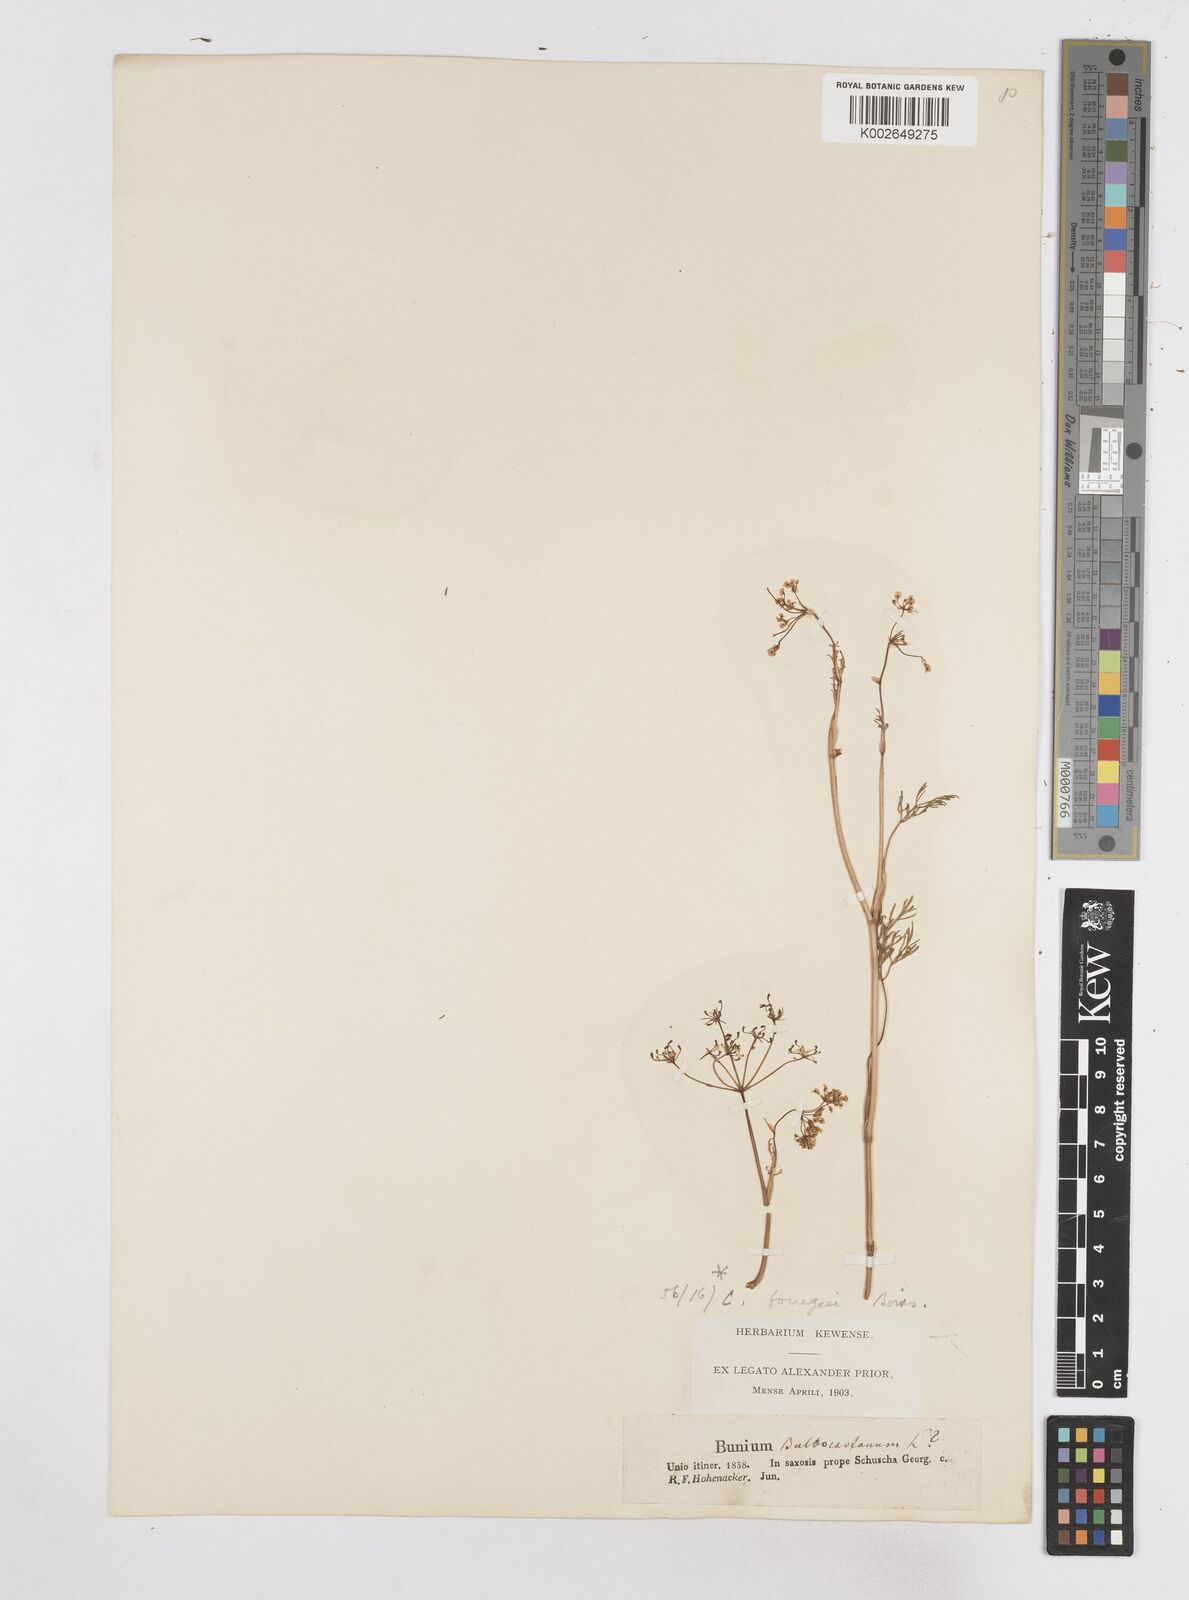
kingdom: Plantae
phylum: Tracheophyta
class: Magnoliopsida
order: Apiales
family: Apiaceae
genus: Bunium
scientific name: Bunium bourgaei
